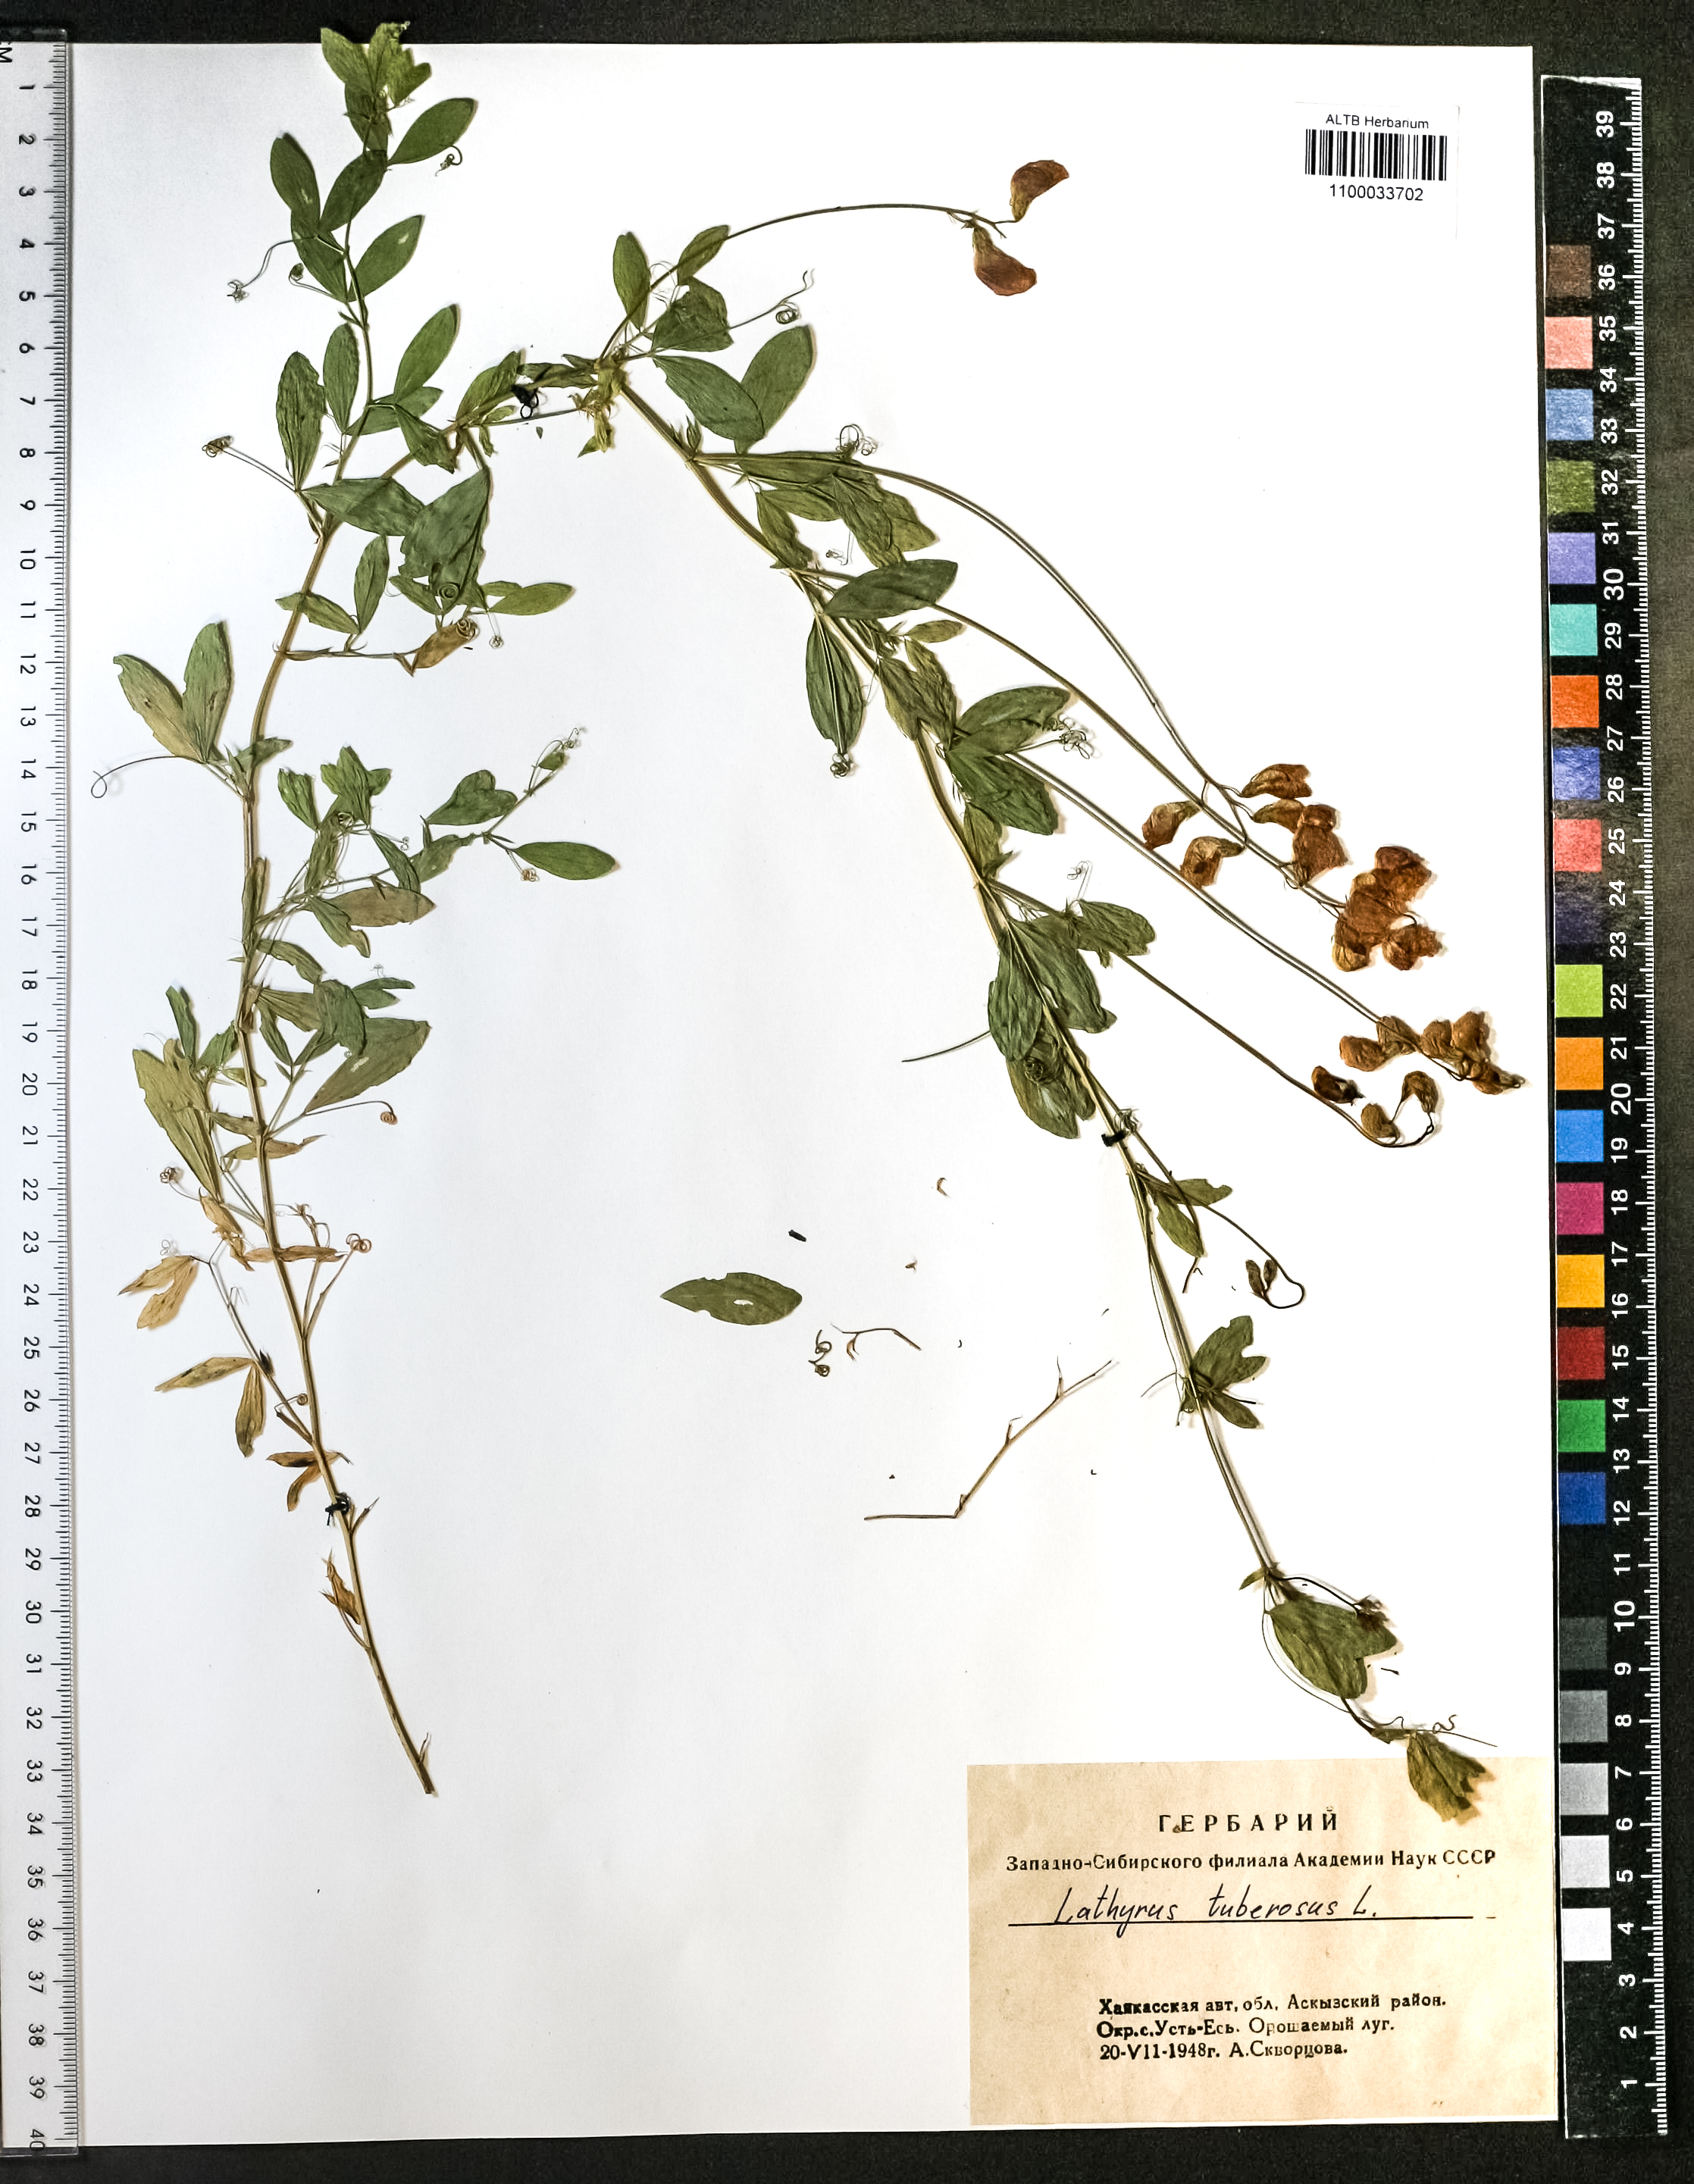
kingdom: Plantae
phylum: Tracheophyta
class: Magnoliopsida
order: Fabales
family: Fabaceae
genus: Lathyrus
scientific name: Lathyrus tuberosus
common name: Tuberous pea
